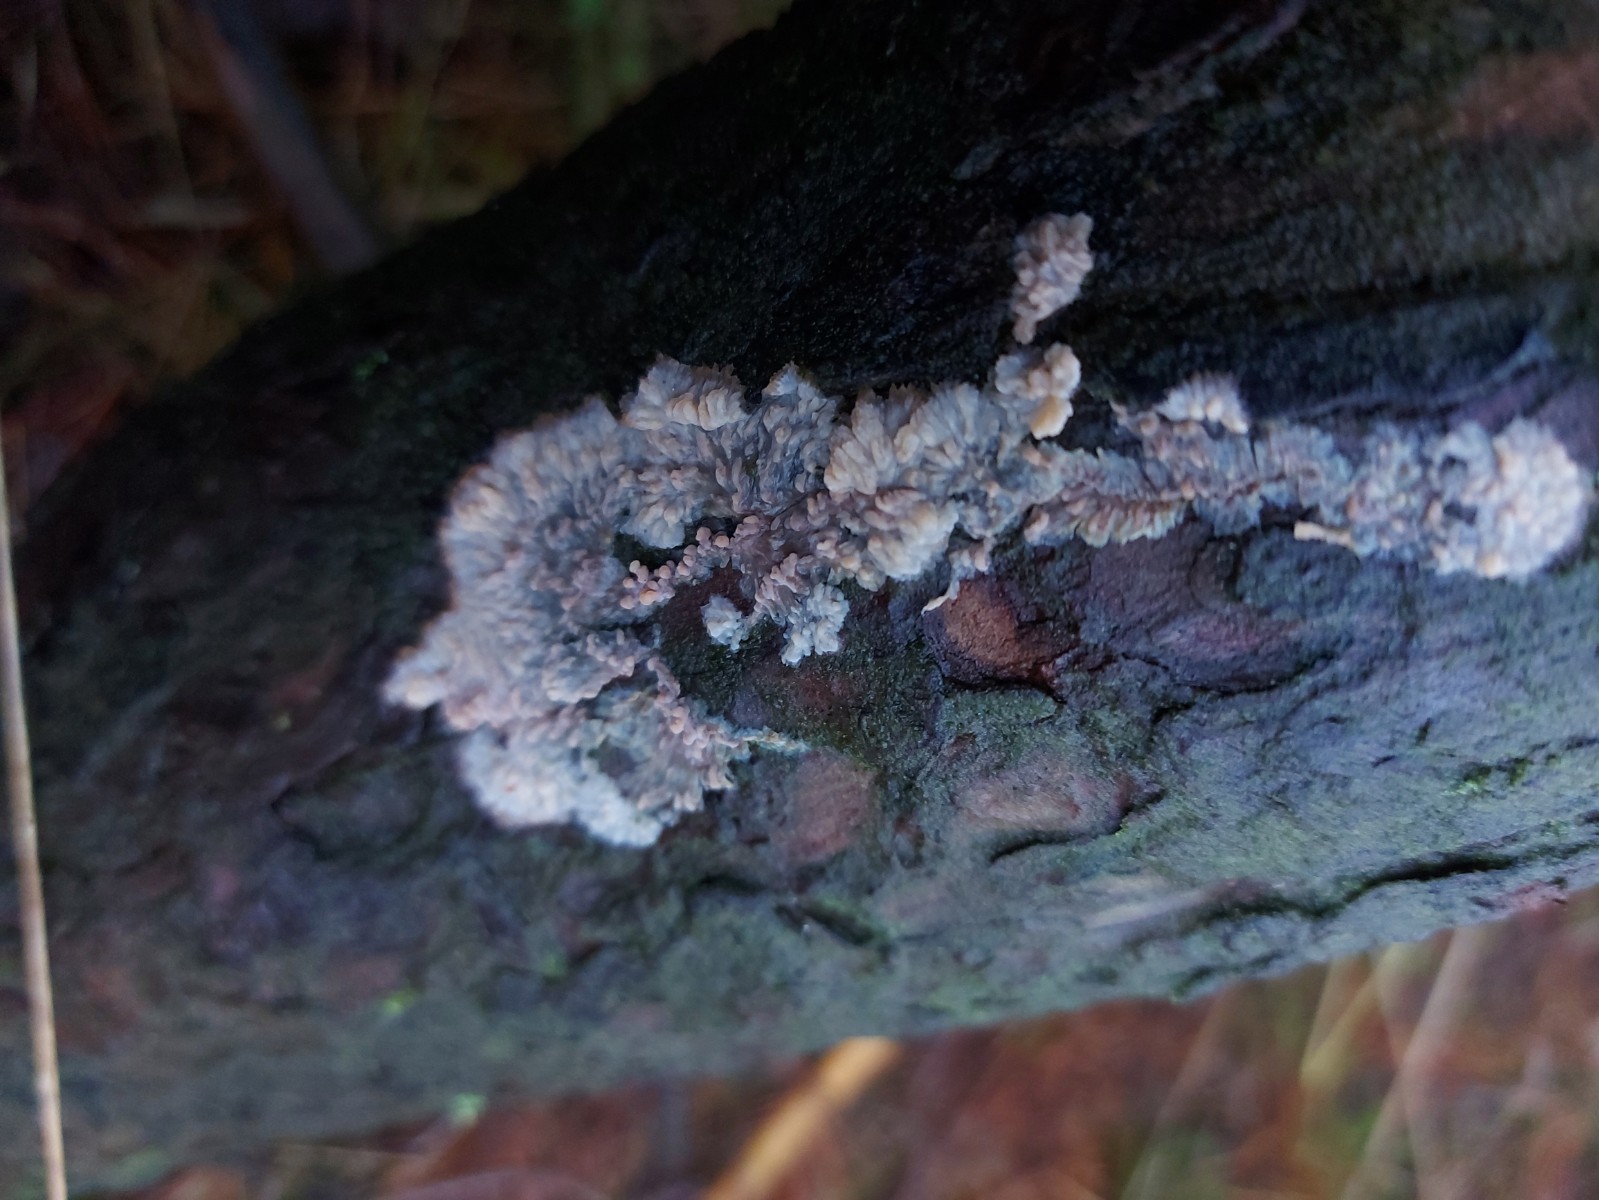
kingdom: Fungi
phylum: Basidiomycota
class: Agaricomycetes
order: Polyporales
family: Meruliaceae
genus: Phlebia
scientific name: Phlebia radiata
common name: stråle-åresvamp
